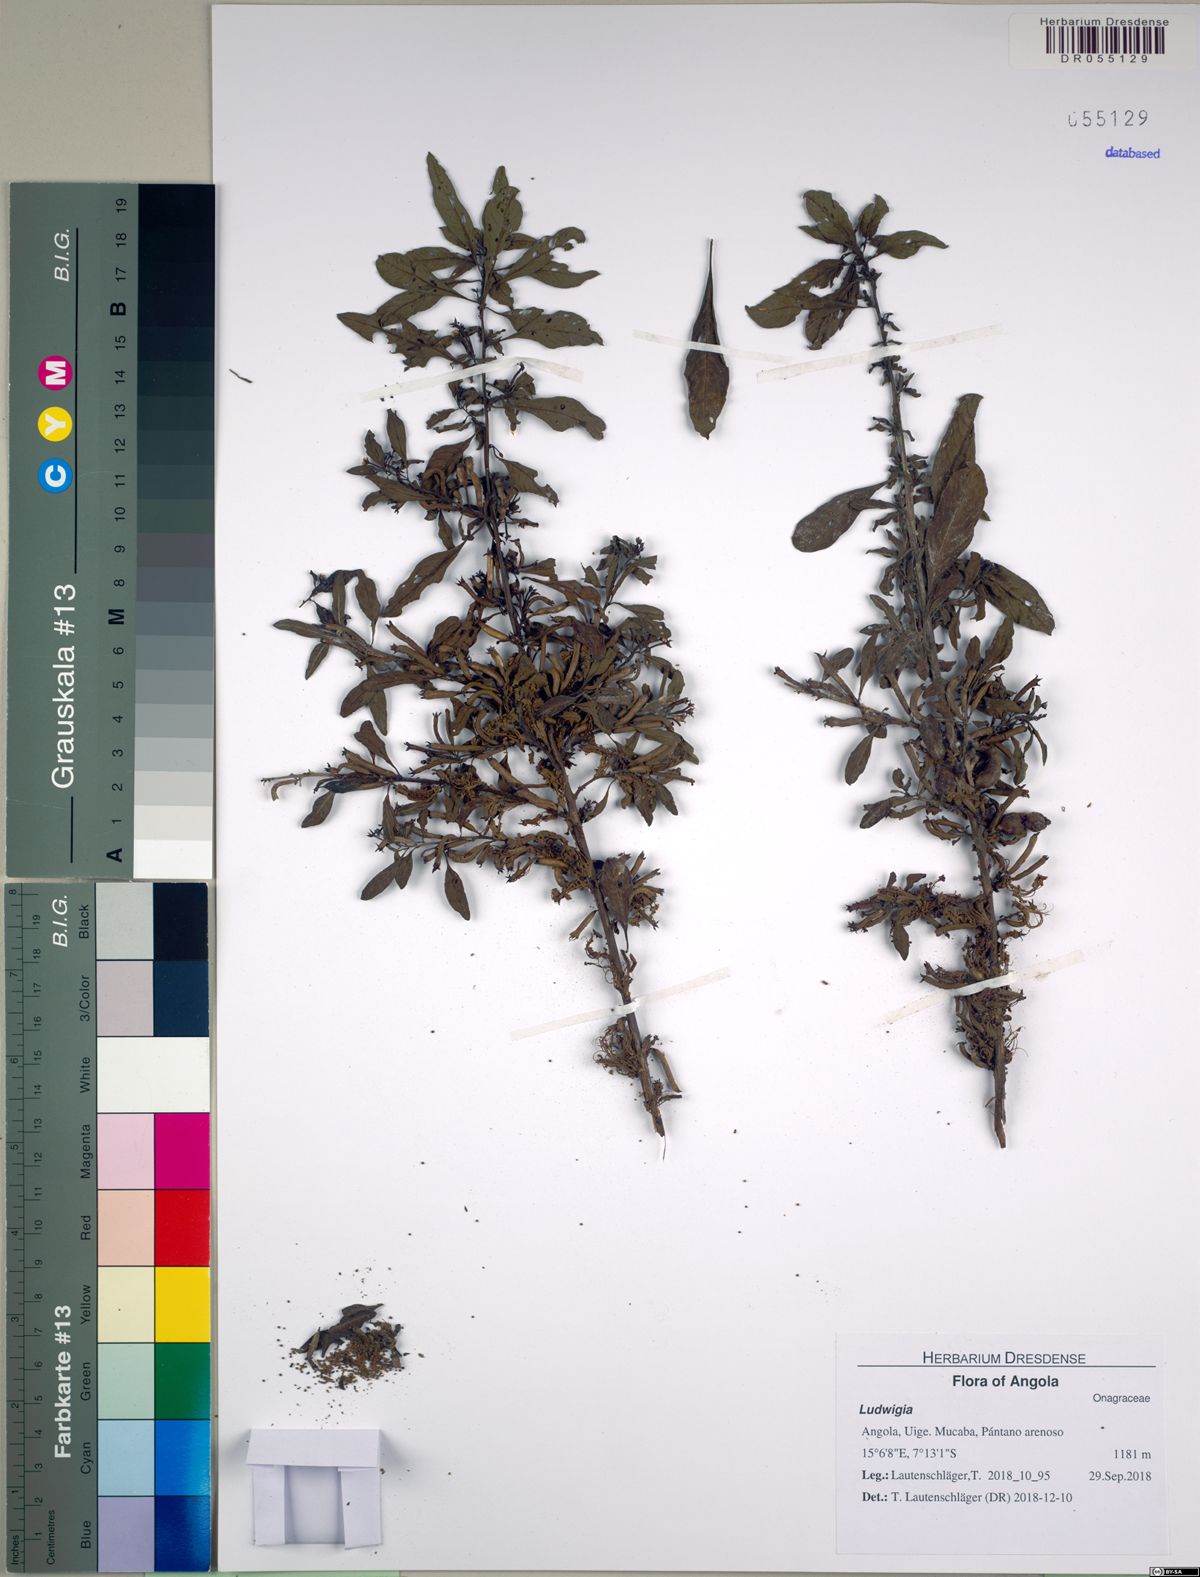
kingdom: Plantae
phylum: Tracheophyta
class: Magnoliopsida
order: Myrtales
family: Onagraceae
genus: Ludwigia
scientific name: Ludwigia abyssinica
